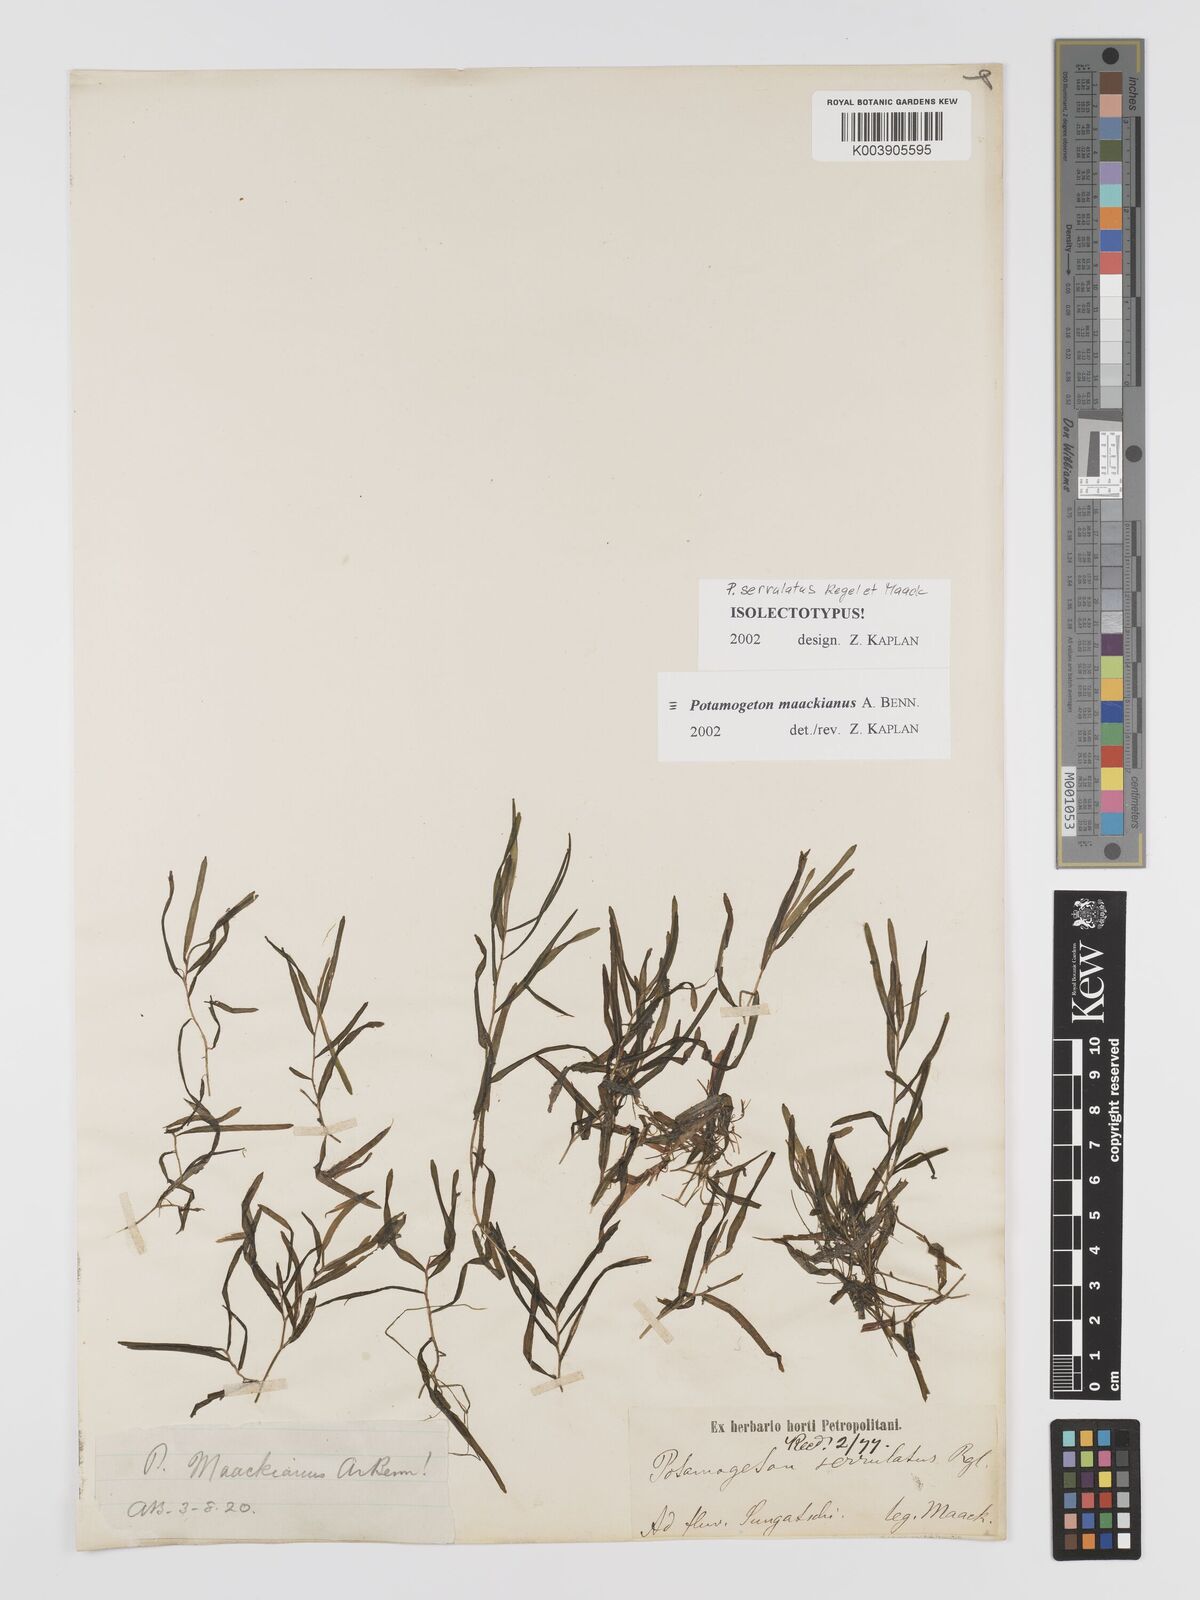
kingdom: Plantae
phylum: Tracheophyta
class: Liliopsida
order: Alismatales
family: Potamogetonaceae
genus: Potamogeton
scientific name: Potamogeton maackianus
